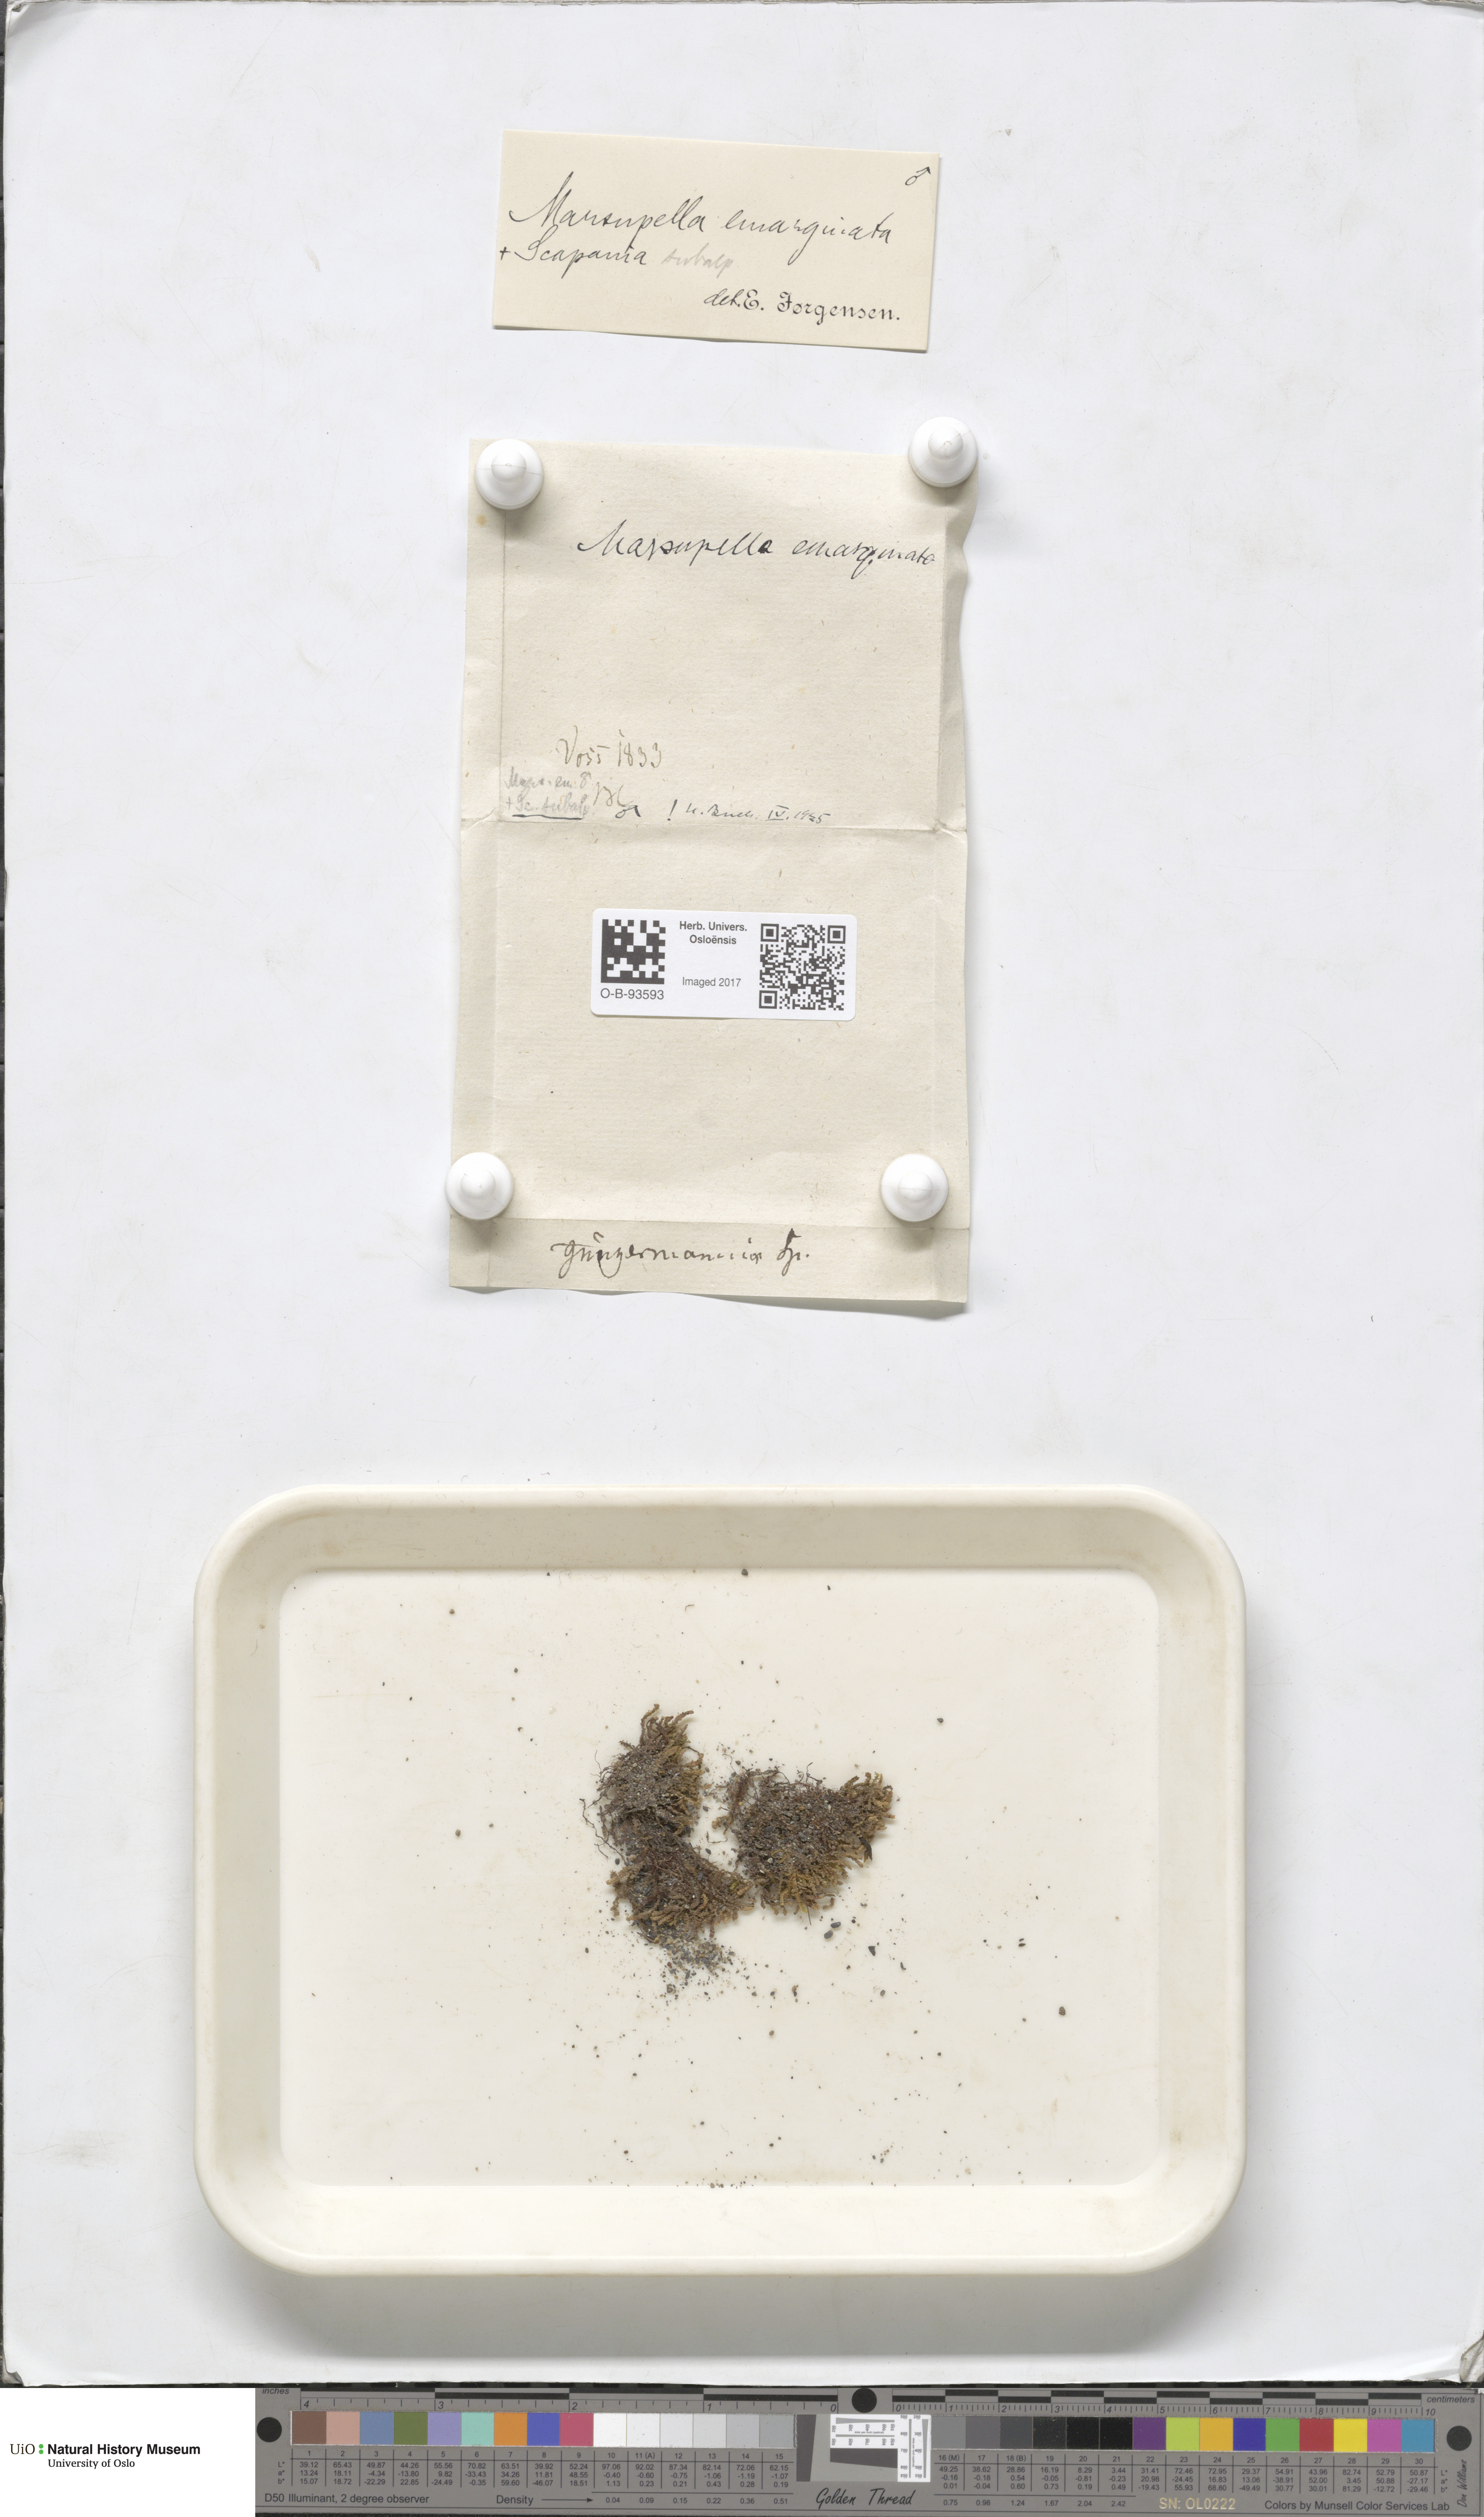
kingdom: Plantae
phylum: Marchantiophyta
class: Jungermanniopsida
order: Jungermanniales
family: Gymnomitriaceae
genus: Marsupella
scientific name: Marsupella emarginata
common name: Notched rustwort
